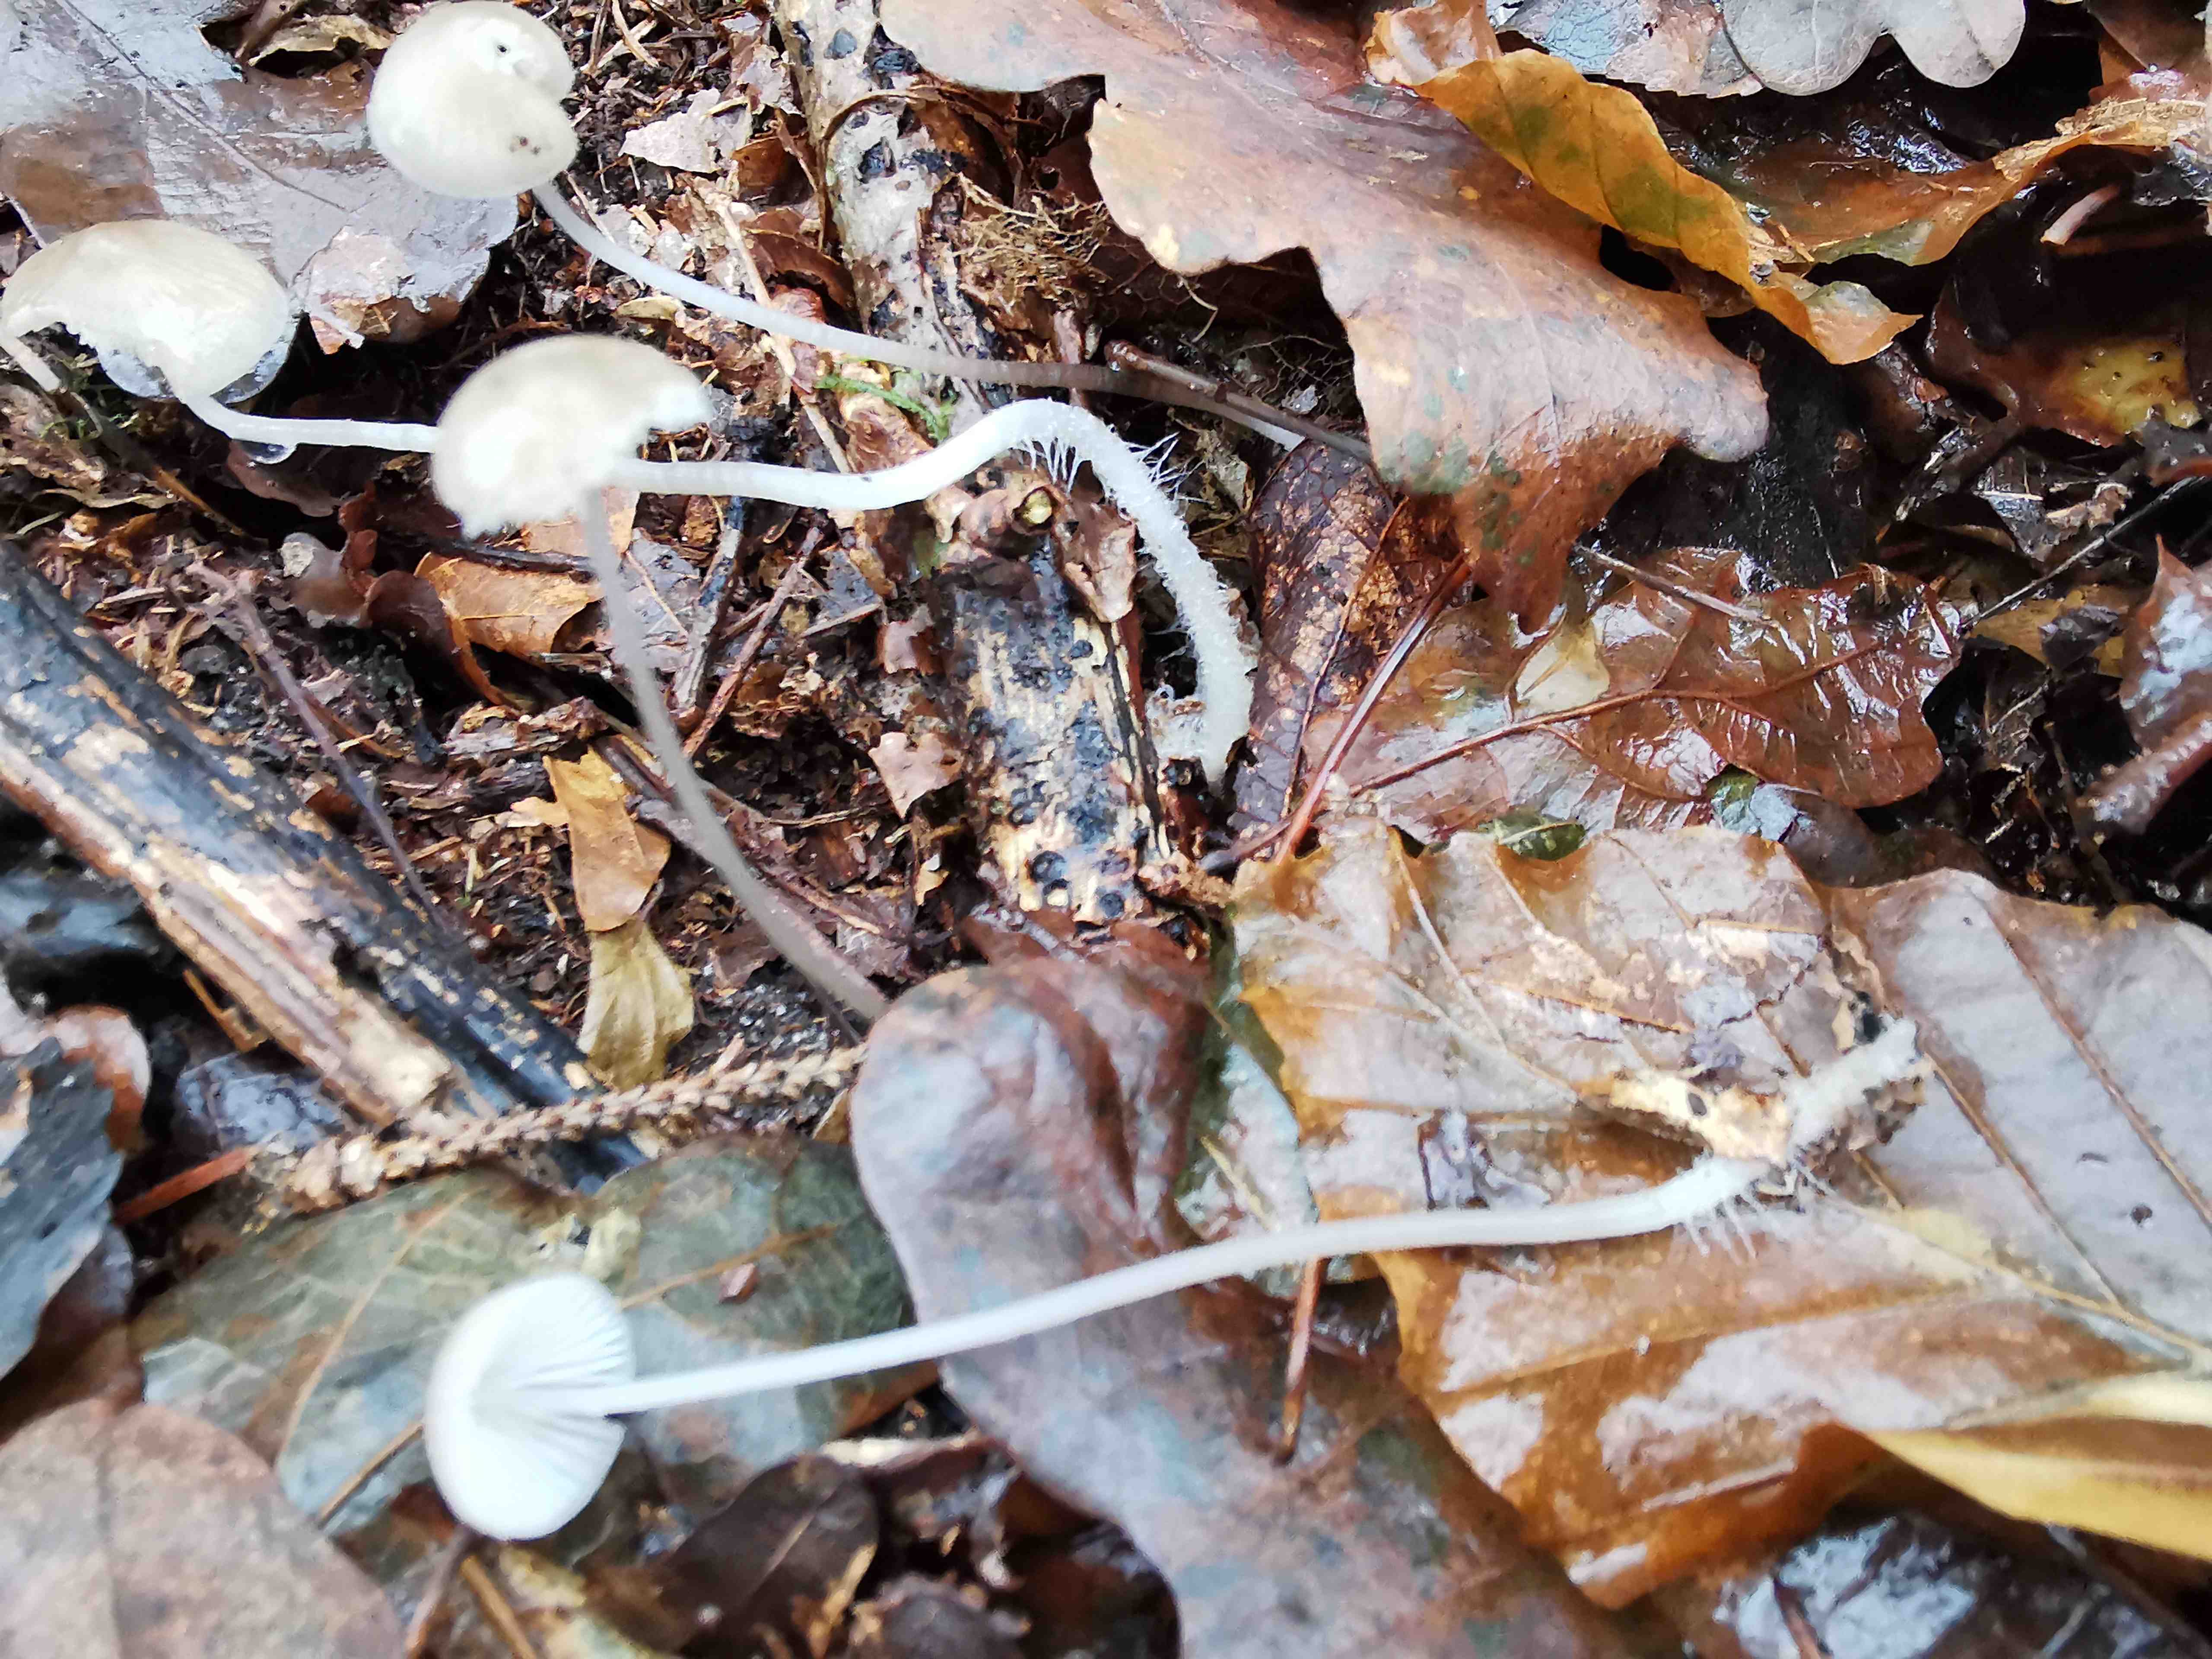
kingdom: Fungi
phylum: Basidiomycota
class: Agaricomycetes
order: Agaricales
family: Mycenaceae
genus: Mycena
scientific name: Mycena vitilis
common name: blankstokket huesvamp
